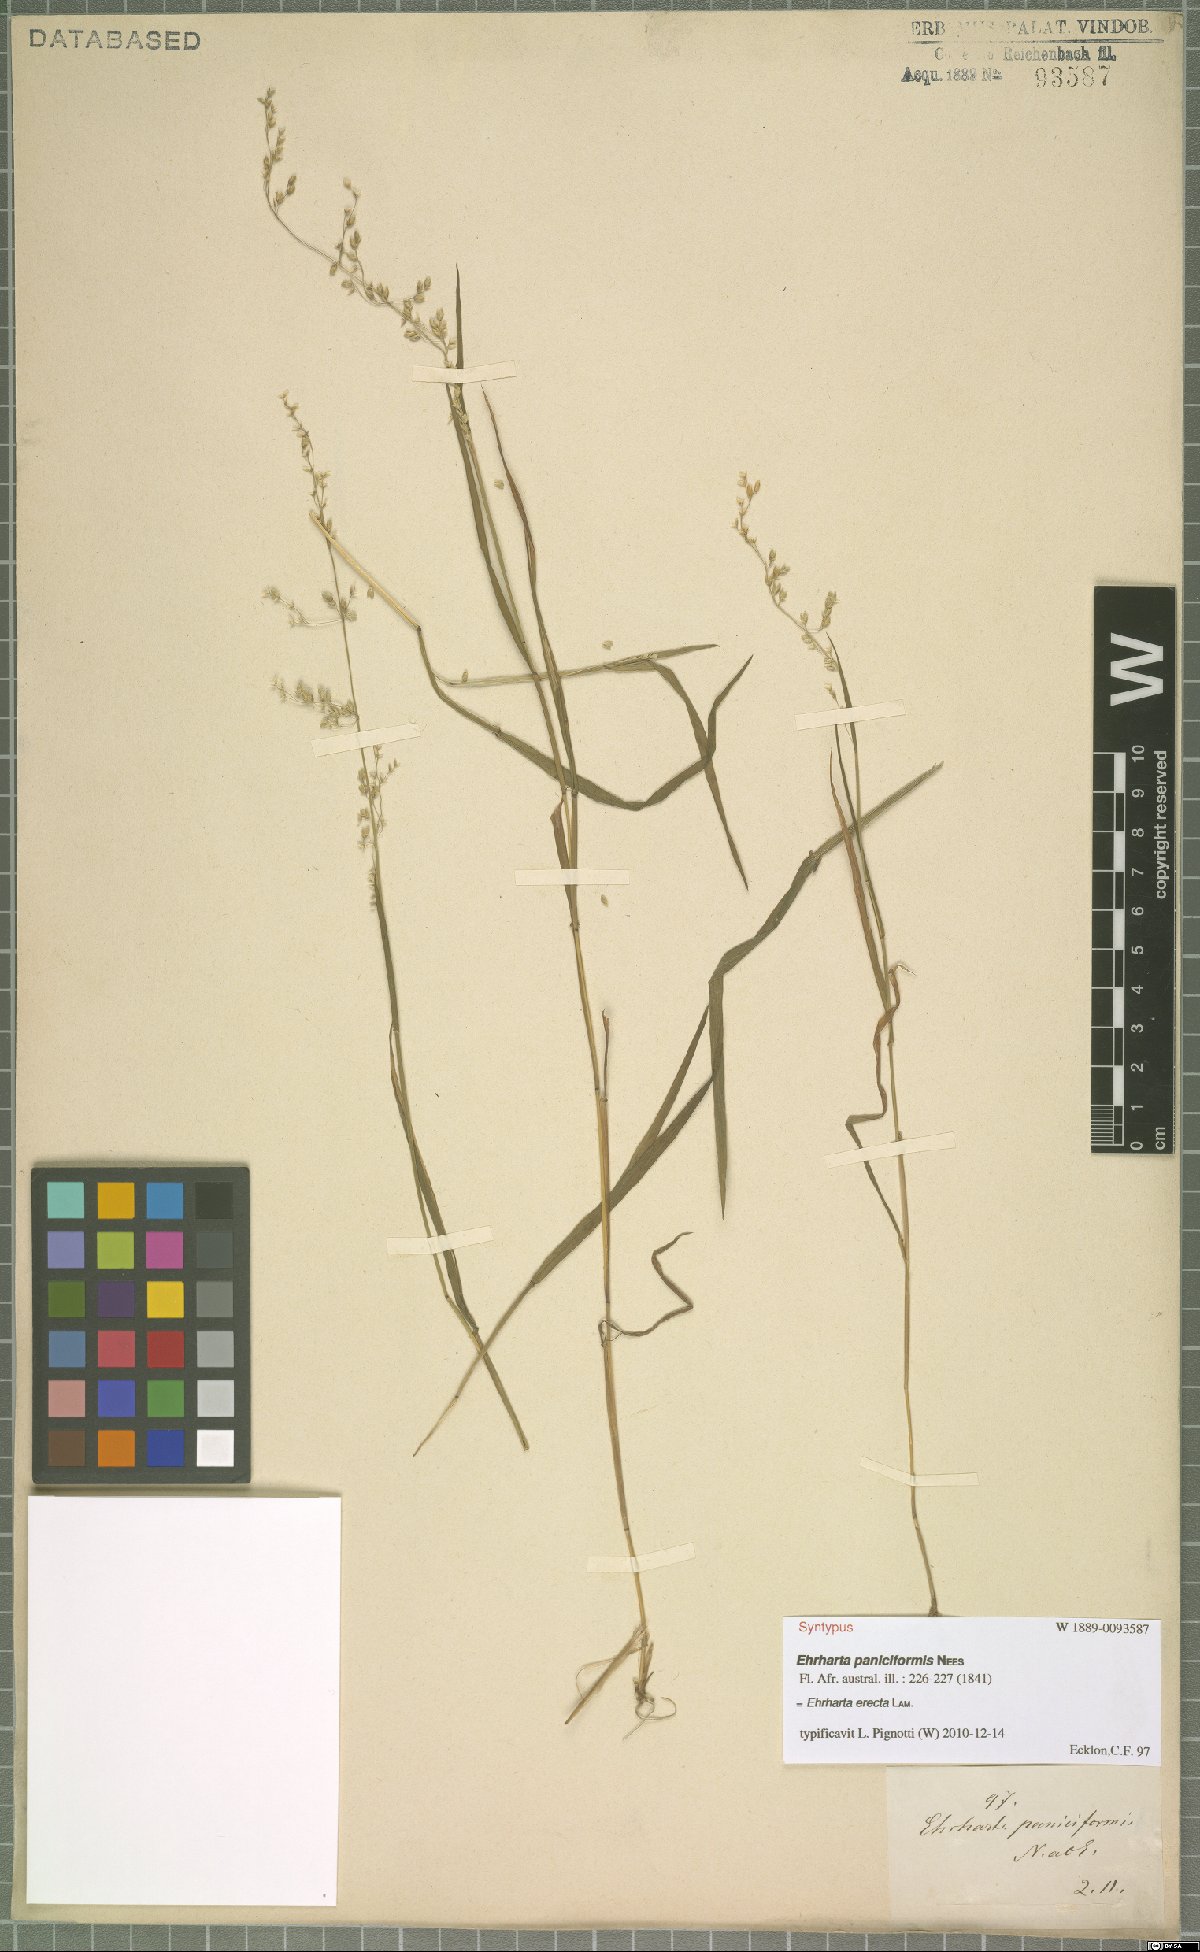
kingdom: Plantae
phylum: Tracheophyta
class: Liliopsida
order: Poales
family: Poaceae
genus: Ehrharta
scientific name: Ehrharta erecta
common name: Panic veldtgrass
